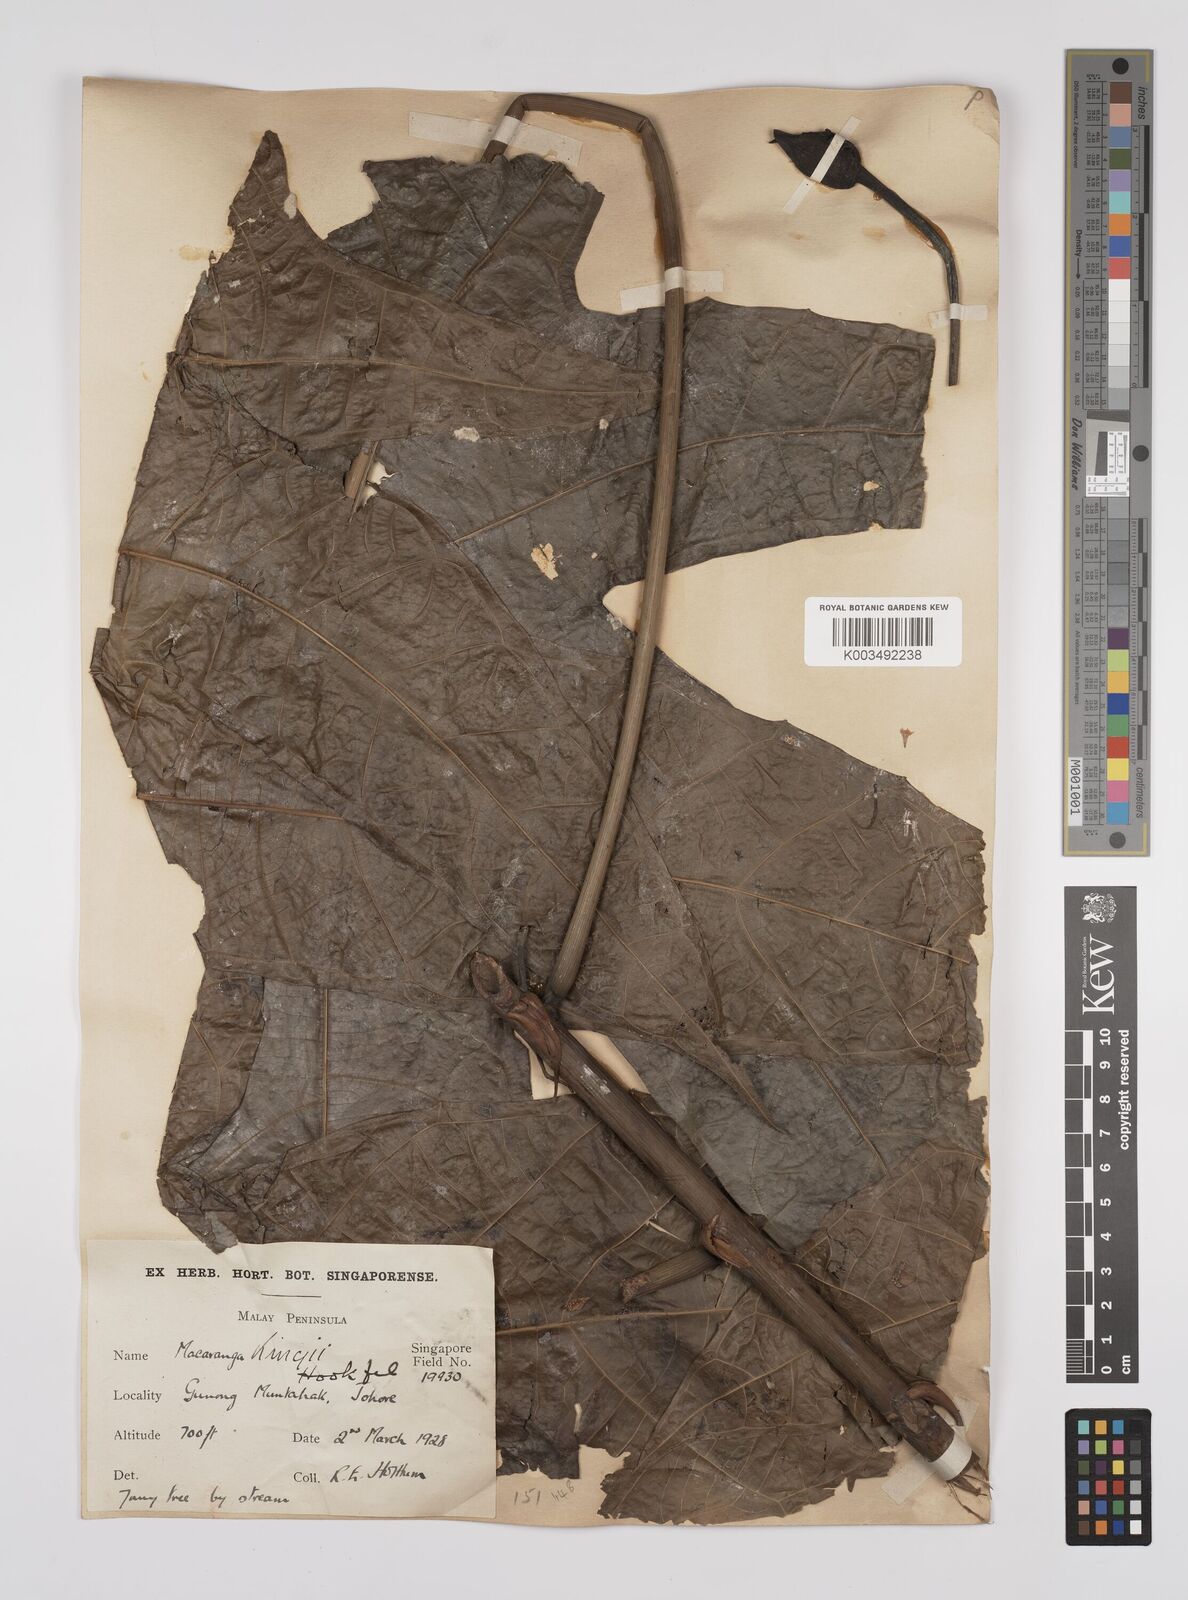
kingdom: Plantae
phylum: Tracheophyta
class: Magnoliopsida
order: Malpighiales
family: Euphorbiaceae
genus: Macaranga
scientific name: Macaranga kingii
